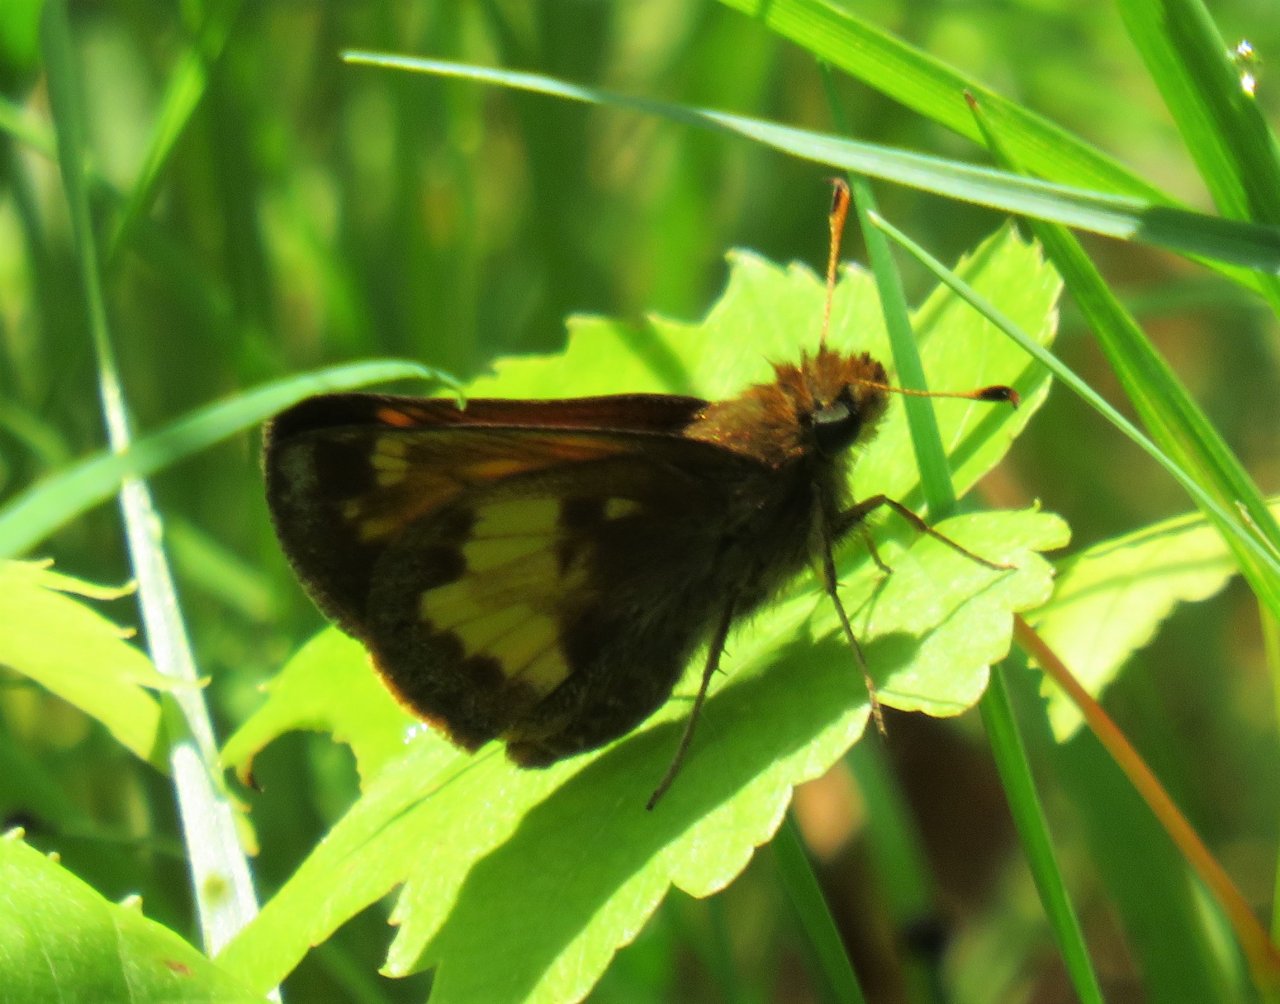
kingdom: Animalia
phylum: Arthropoda
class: Insecta
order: Lepidoptera
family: Hesperiidae
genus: Lon
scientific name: Lon hobomok
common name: Hobomok Skipper
